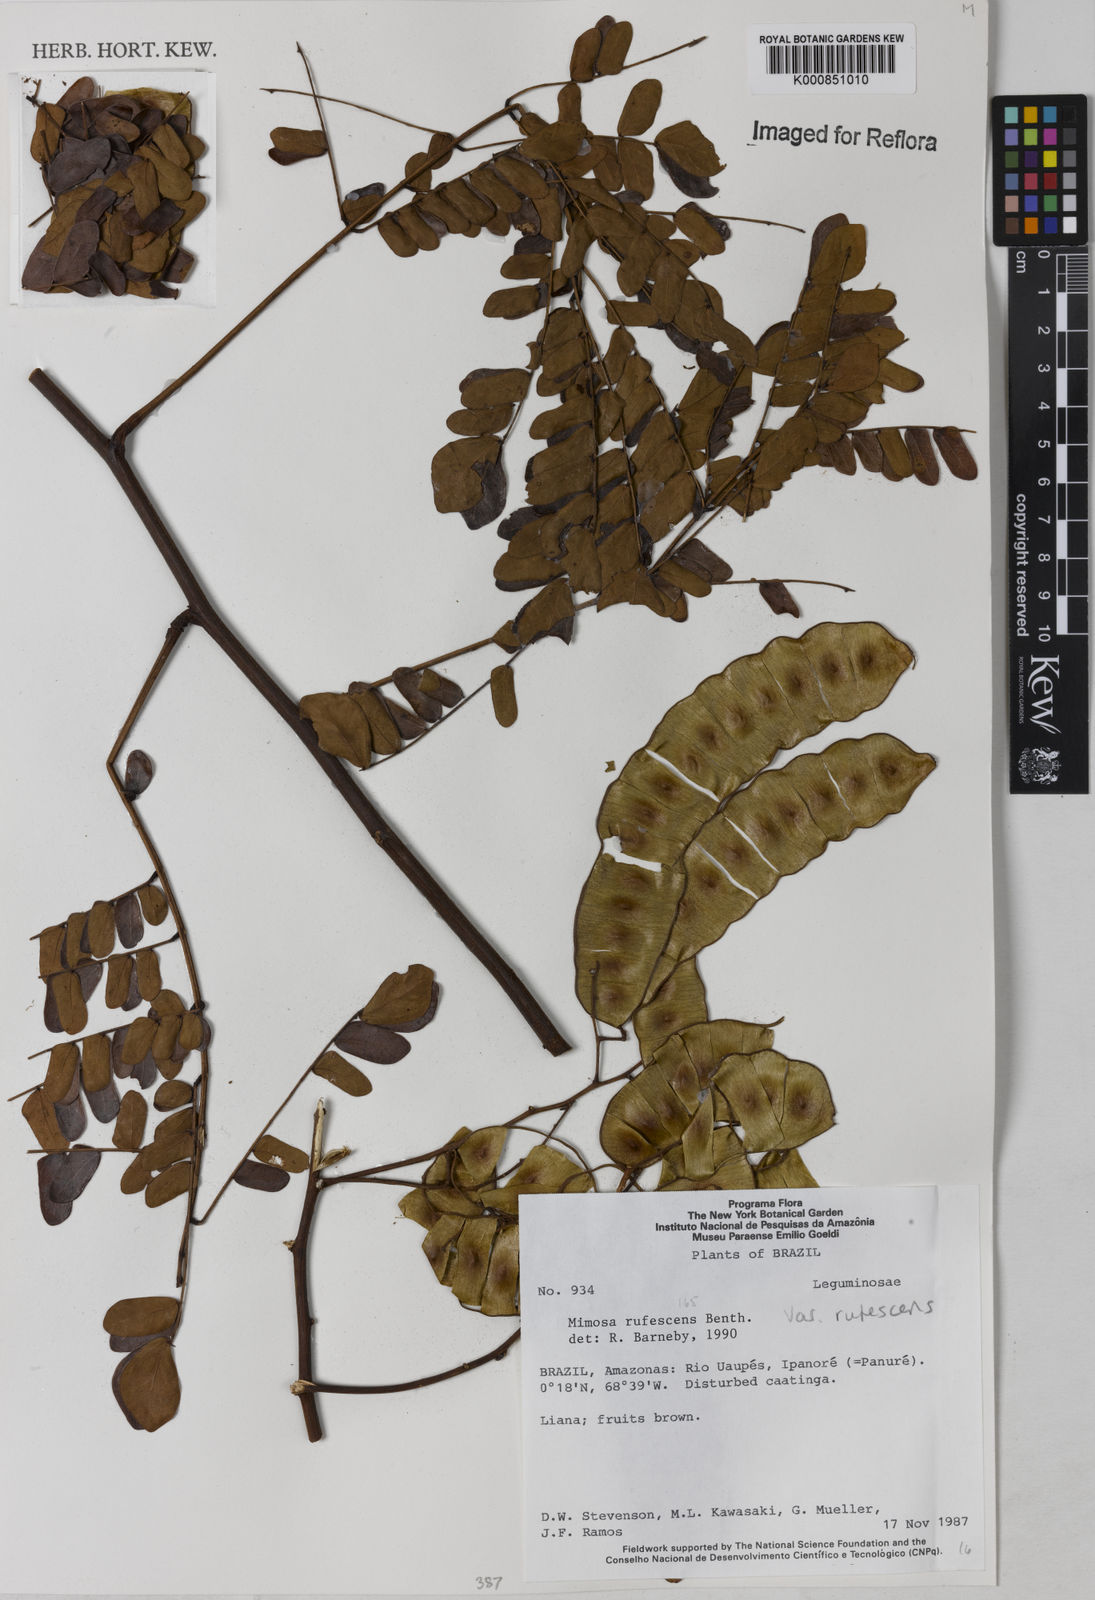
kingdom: Plantae
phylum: Tracheophyta
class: Magnoliopsida
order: Fabales
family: Fabaceae
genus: Mimosa
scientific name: Mimosa rufescens
